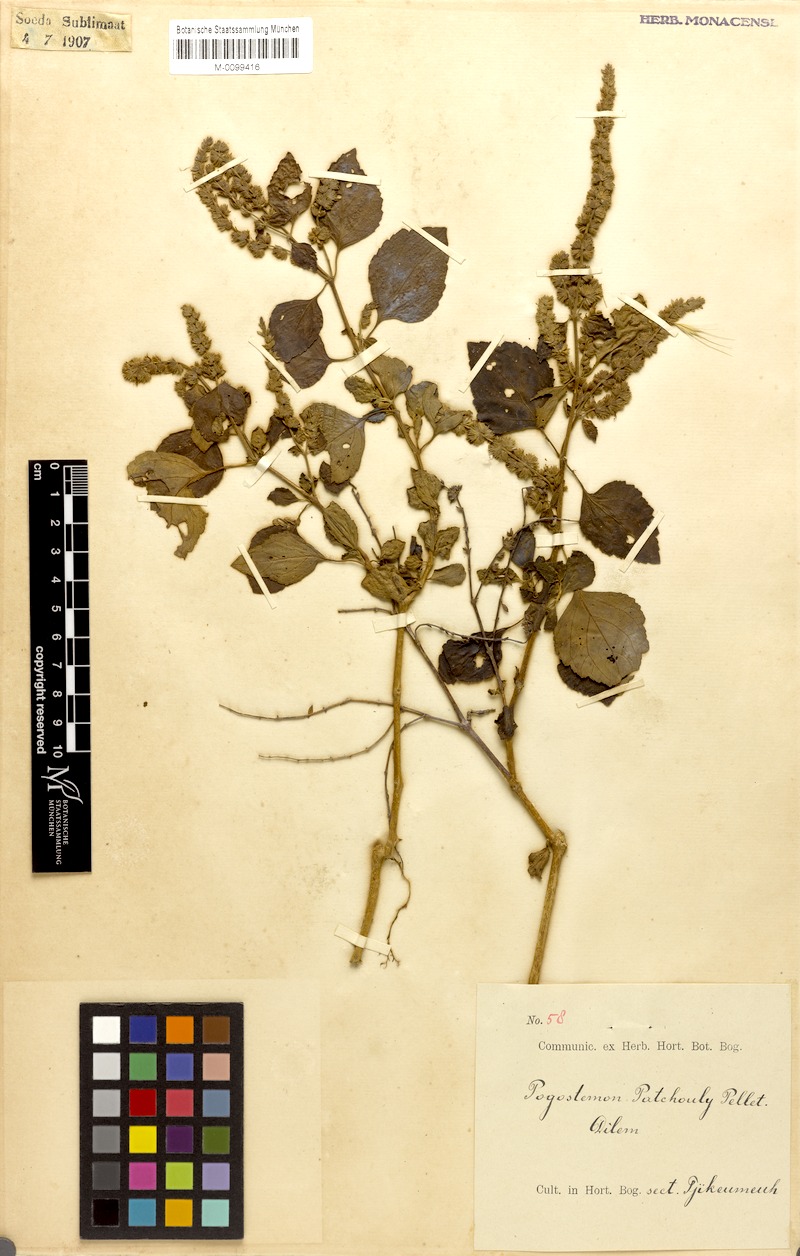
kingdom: Plantae
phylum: Tracheophyta
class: Magnoliopsida
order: Lamiales
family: Lamiaceae
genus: Pogostemon
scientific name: Pogostemon cablin
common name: Patchouli-plant
